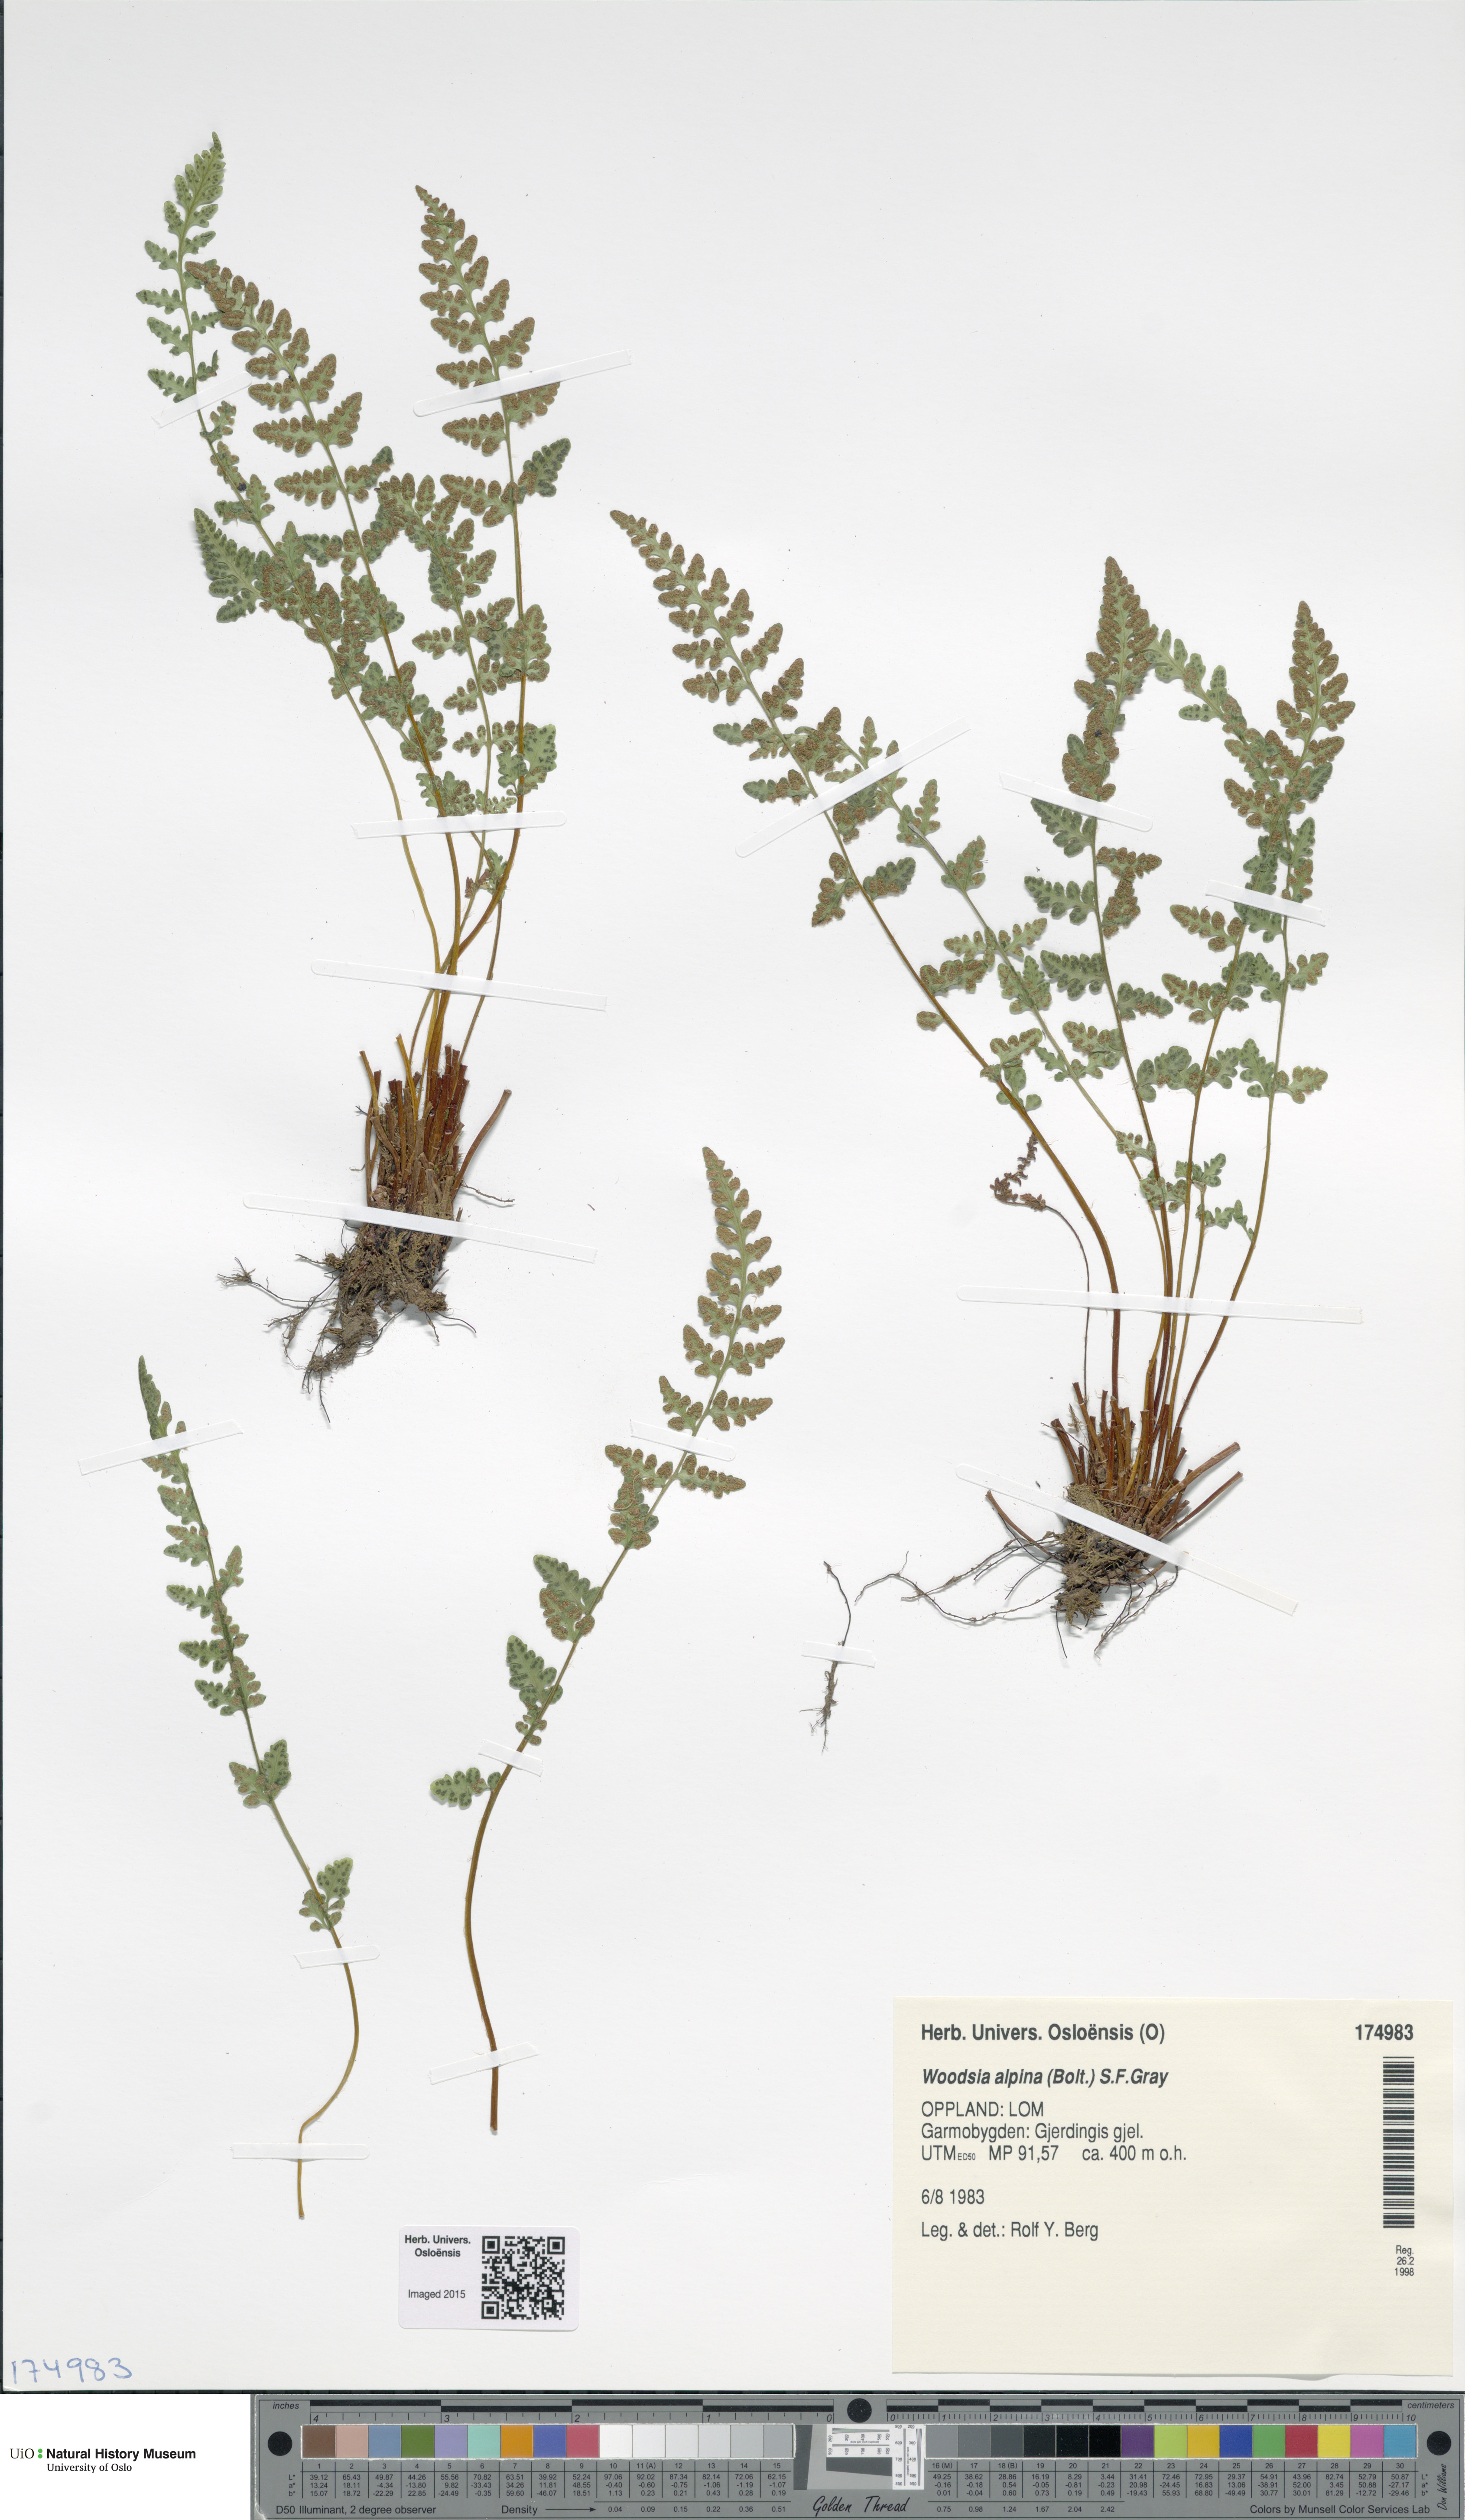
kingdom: Plantae
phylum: Tracheophyta
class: Polypodiopsida
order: Polypodiales
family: Woodsiaceae
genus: Woodsia
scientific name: Woodsia alpina
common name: Alpine woodsia
